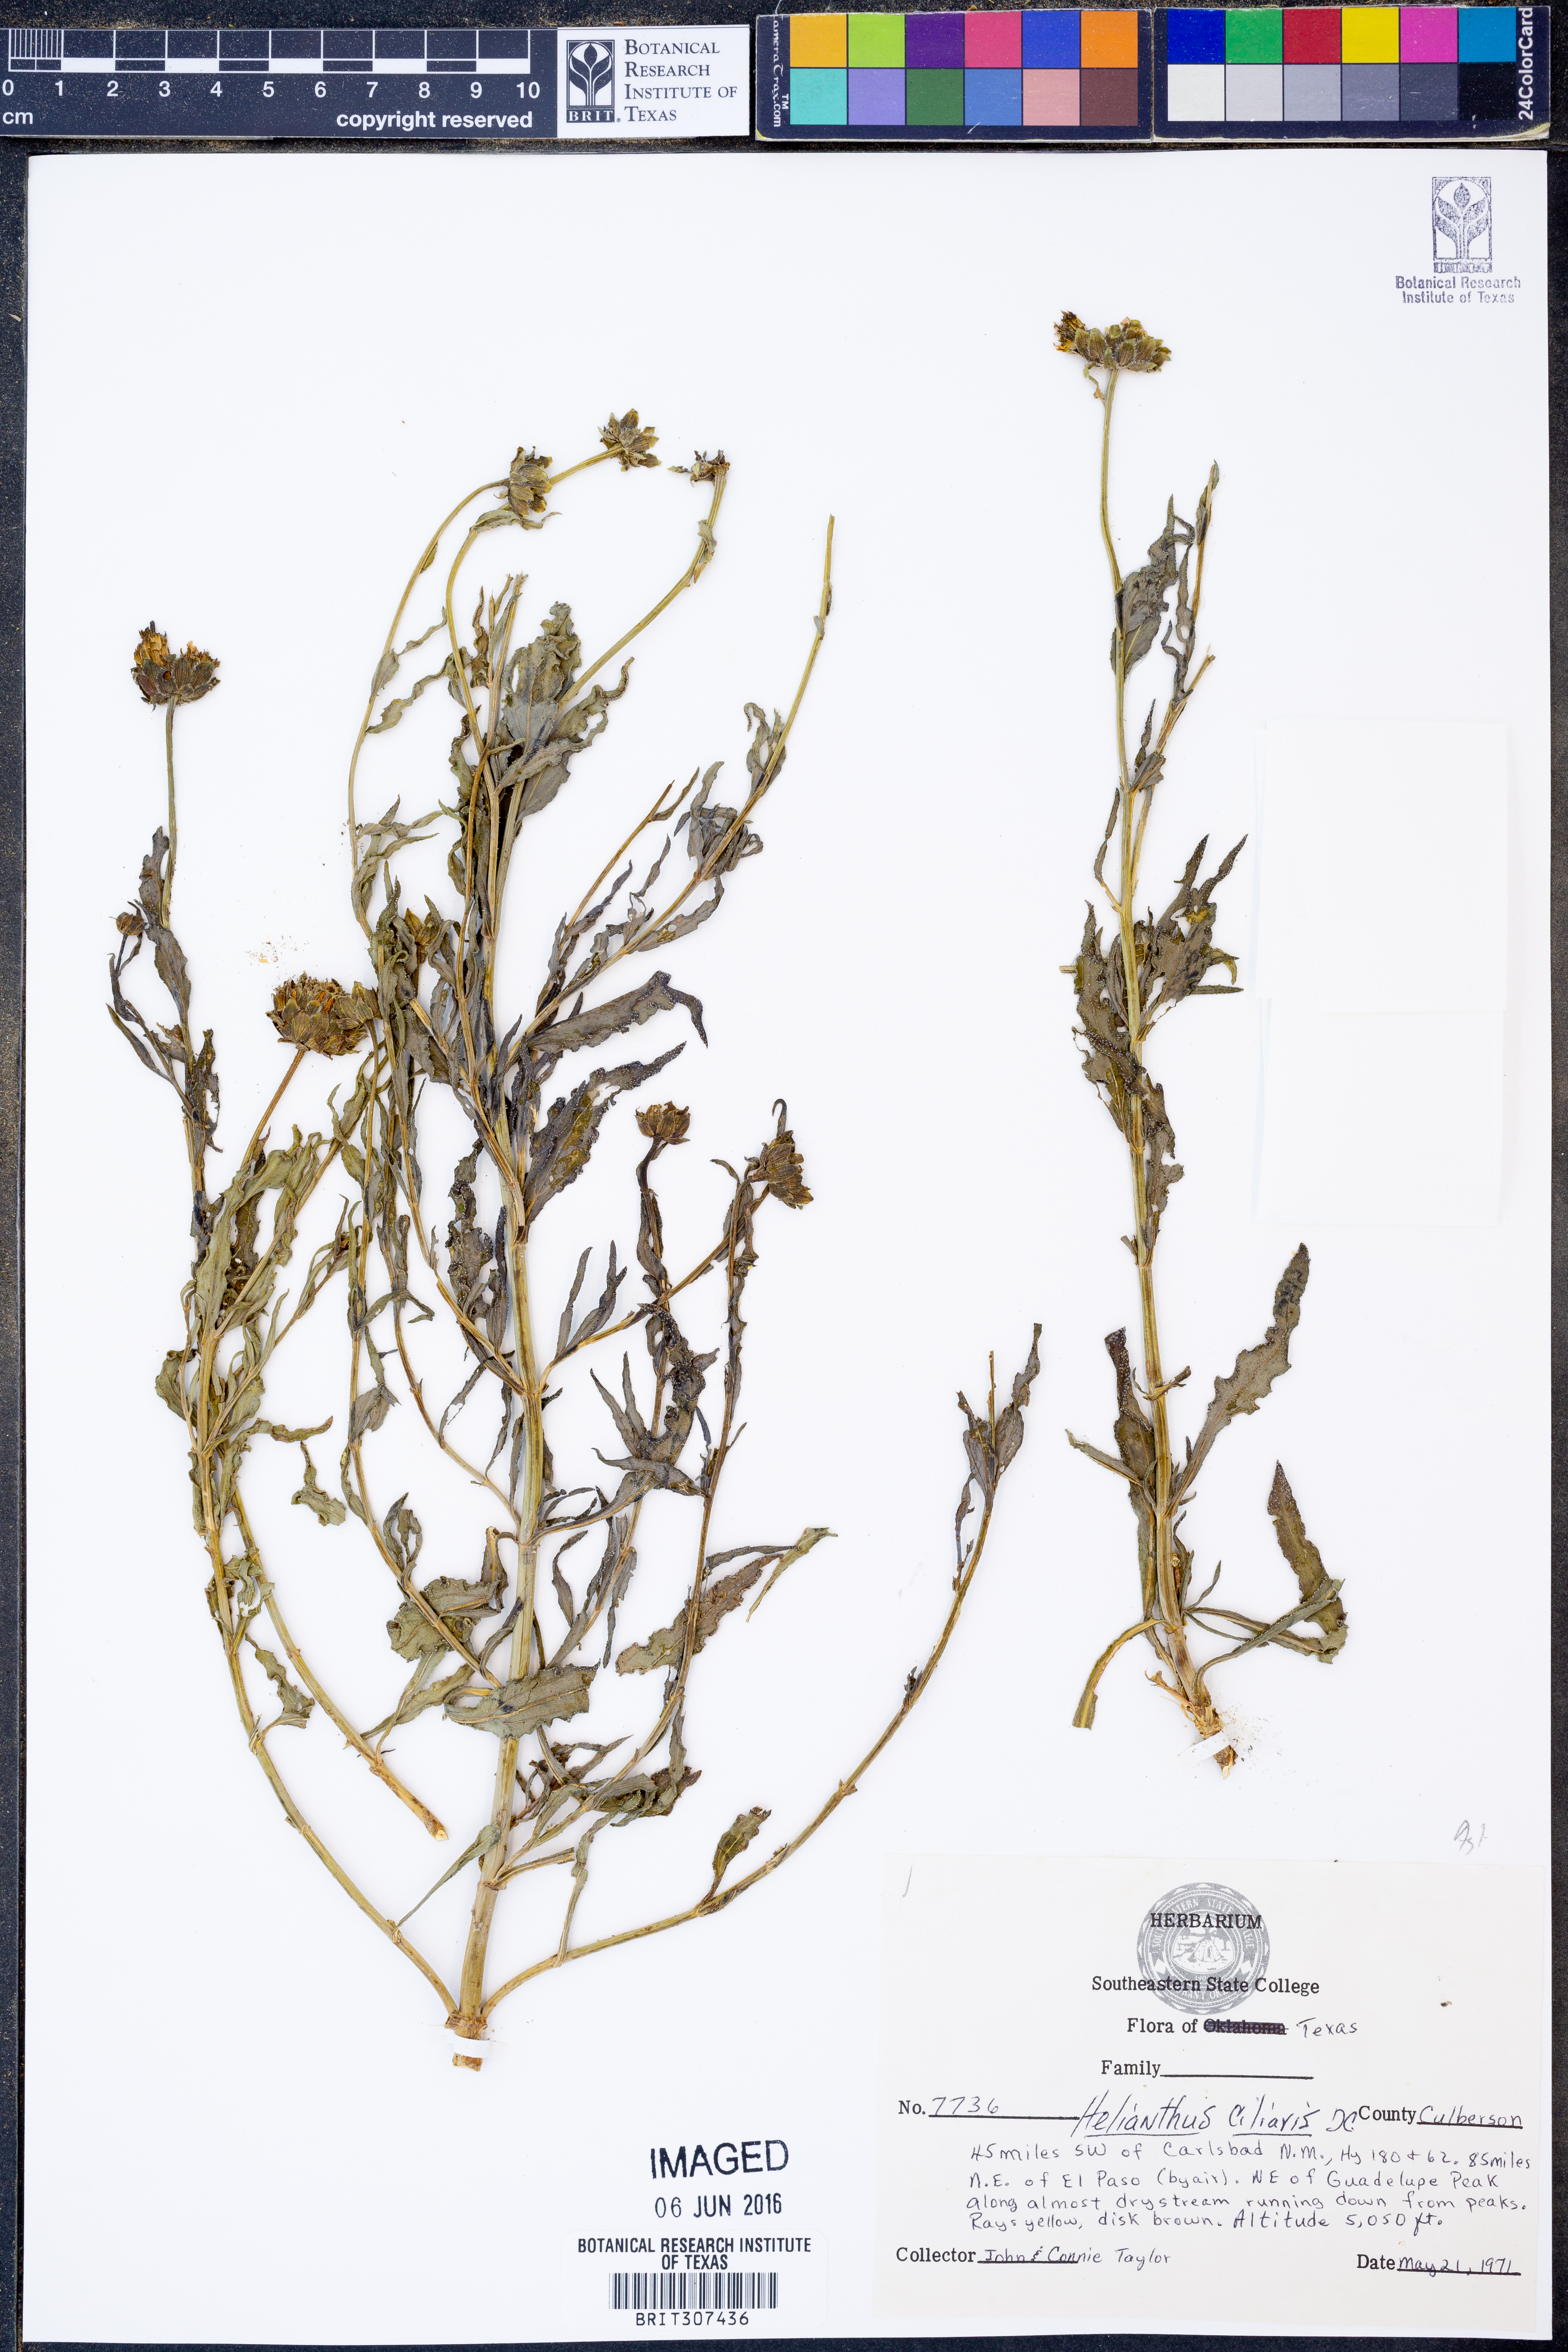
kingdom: Plantae
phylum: Tracheophyta
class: Magnoliopsida
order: Asterales
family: Asteraceae
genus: Helianthus
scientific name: Helianthus ciliaris
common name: Texas blueweed
